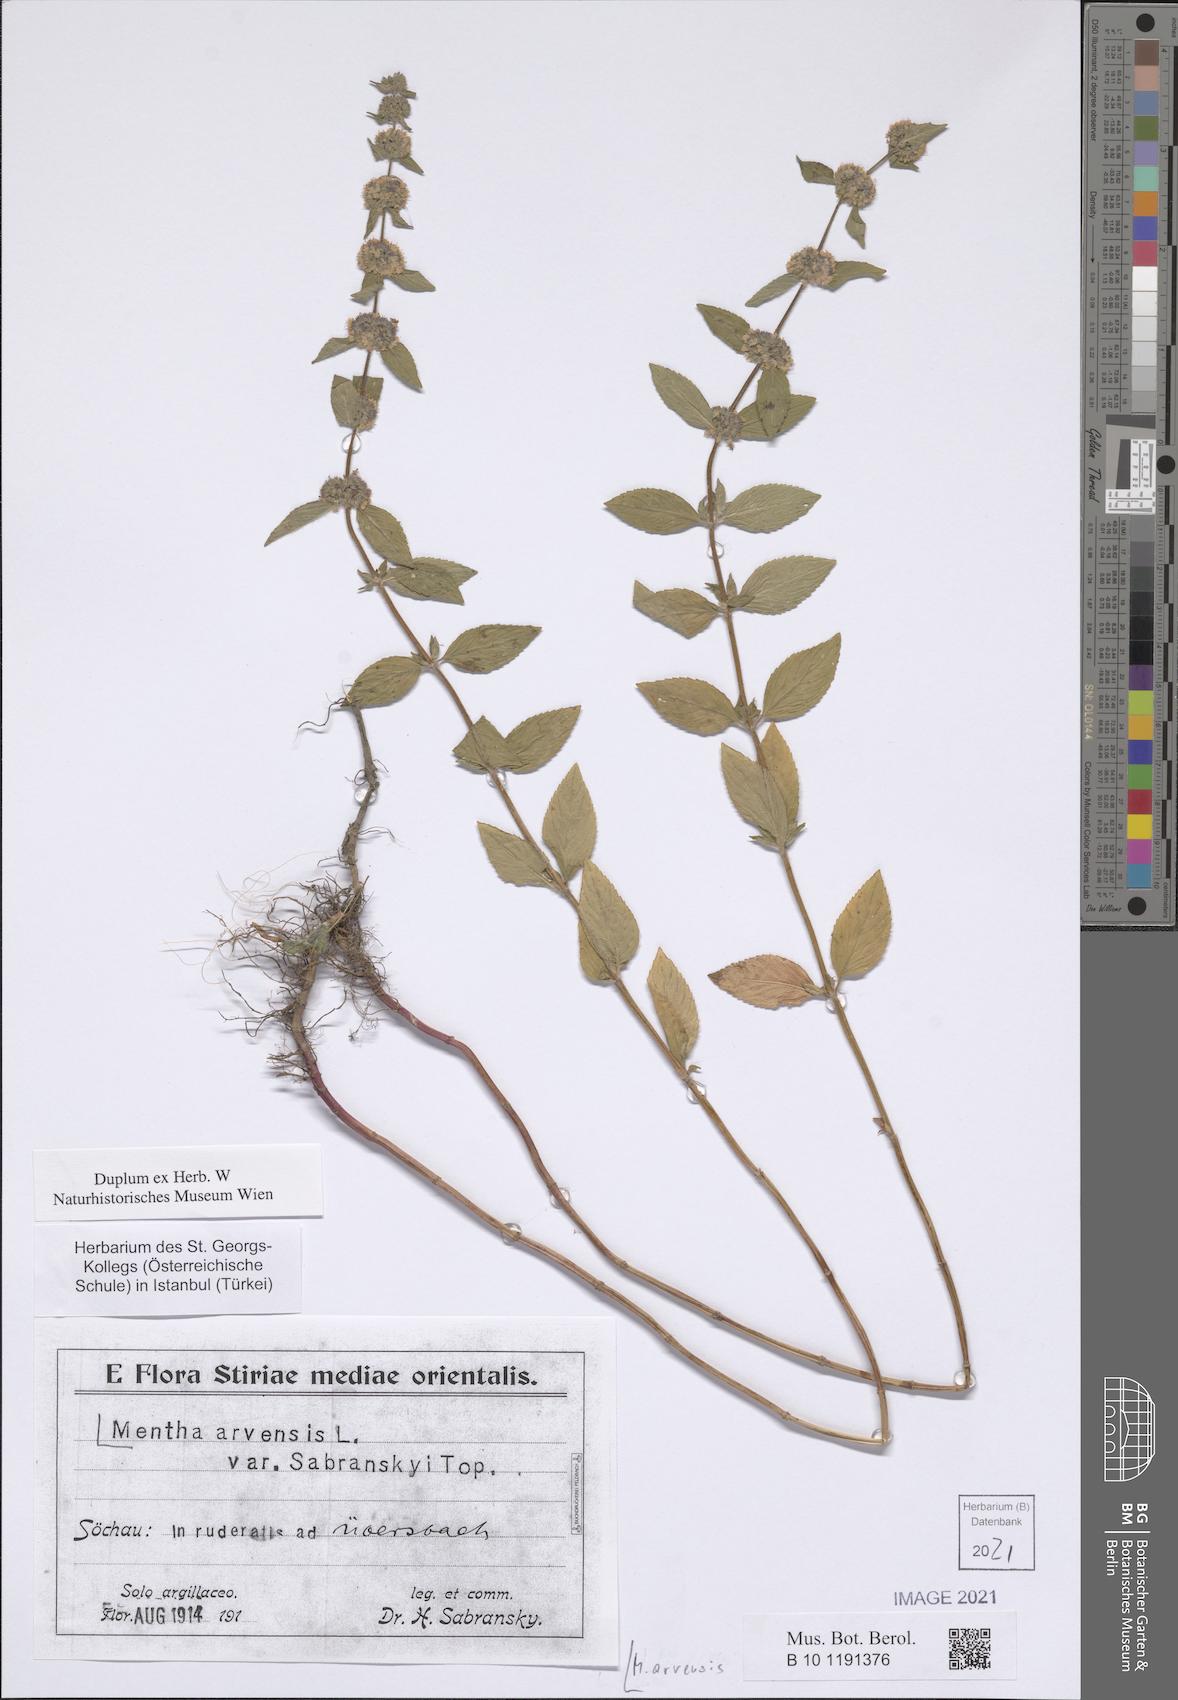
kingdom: Plantae
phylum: Tracheophyta
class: Magnoliopsida
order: Lamiales
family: Lamiaceae
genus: Mentha
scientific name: Mentha arvensis
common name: Corn mint
